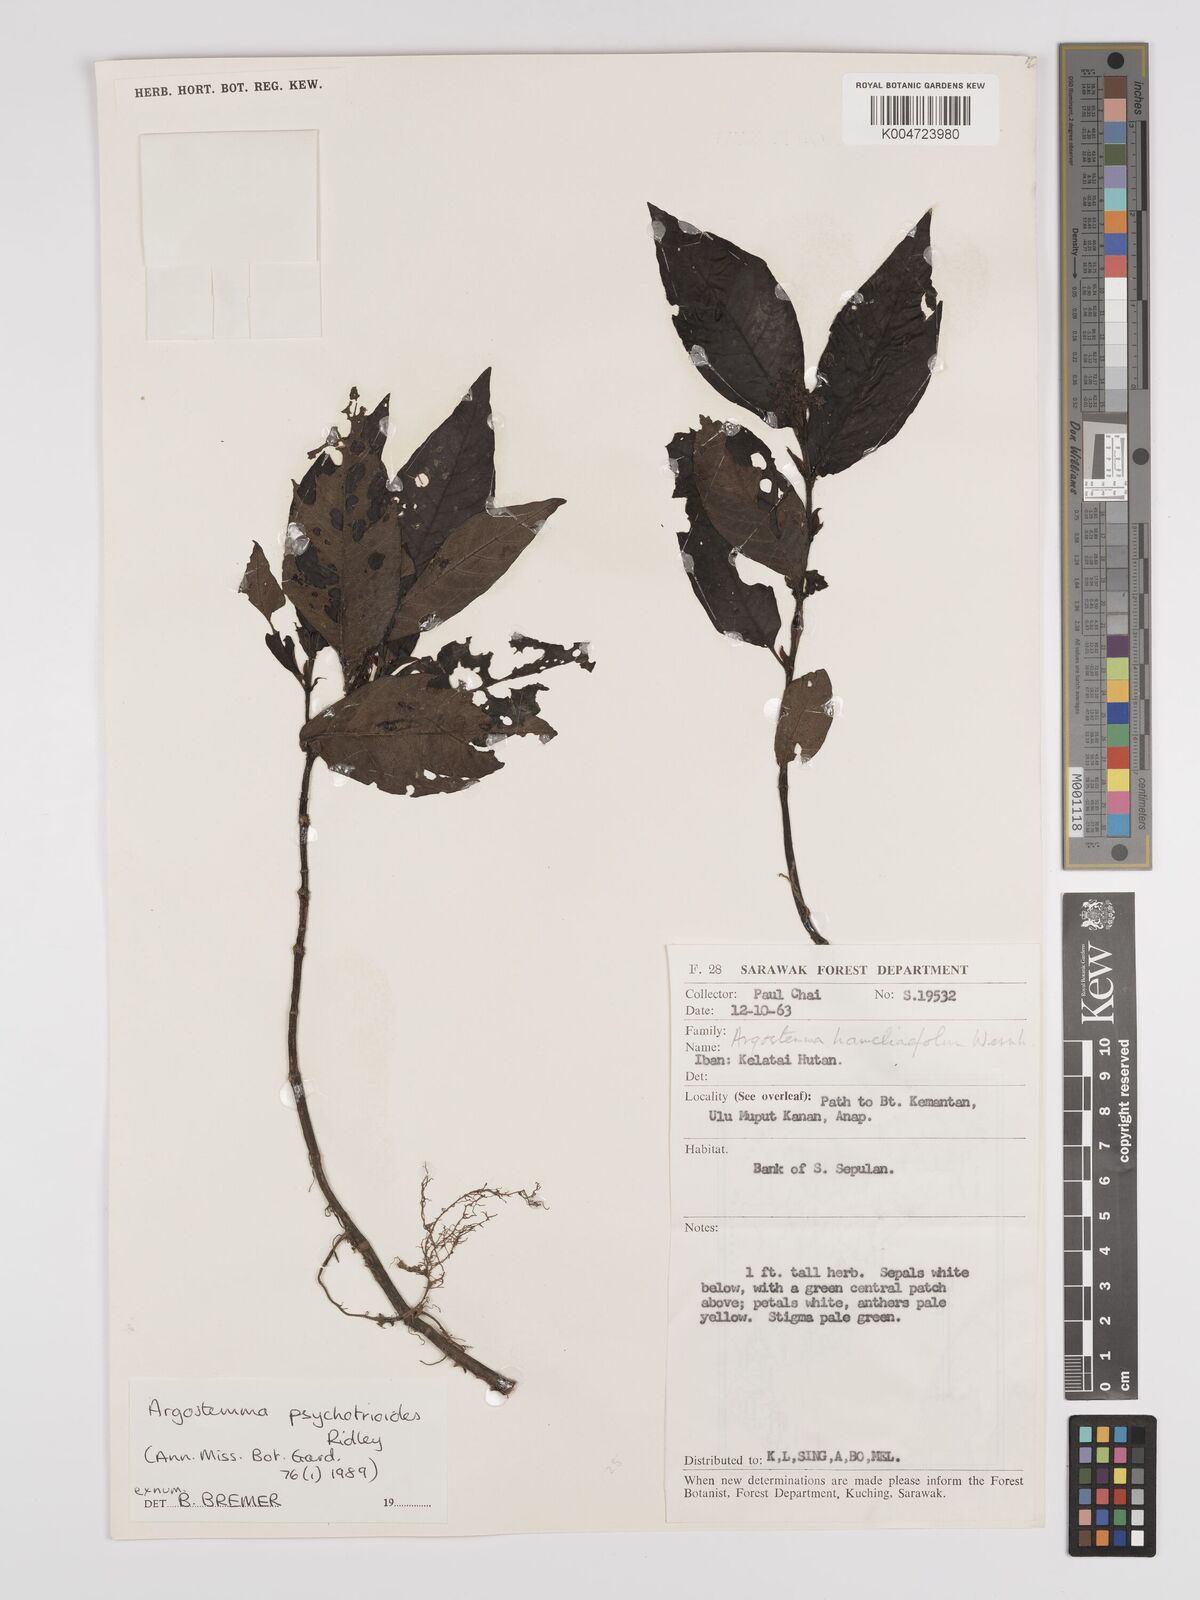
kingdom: Plantae
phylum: Tracheophyta
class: Magnoliopsida
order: Gentianales
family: Rubiaceae
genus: Argostemma
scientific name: Argostemma psychotrioides
